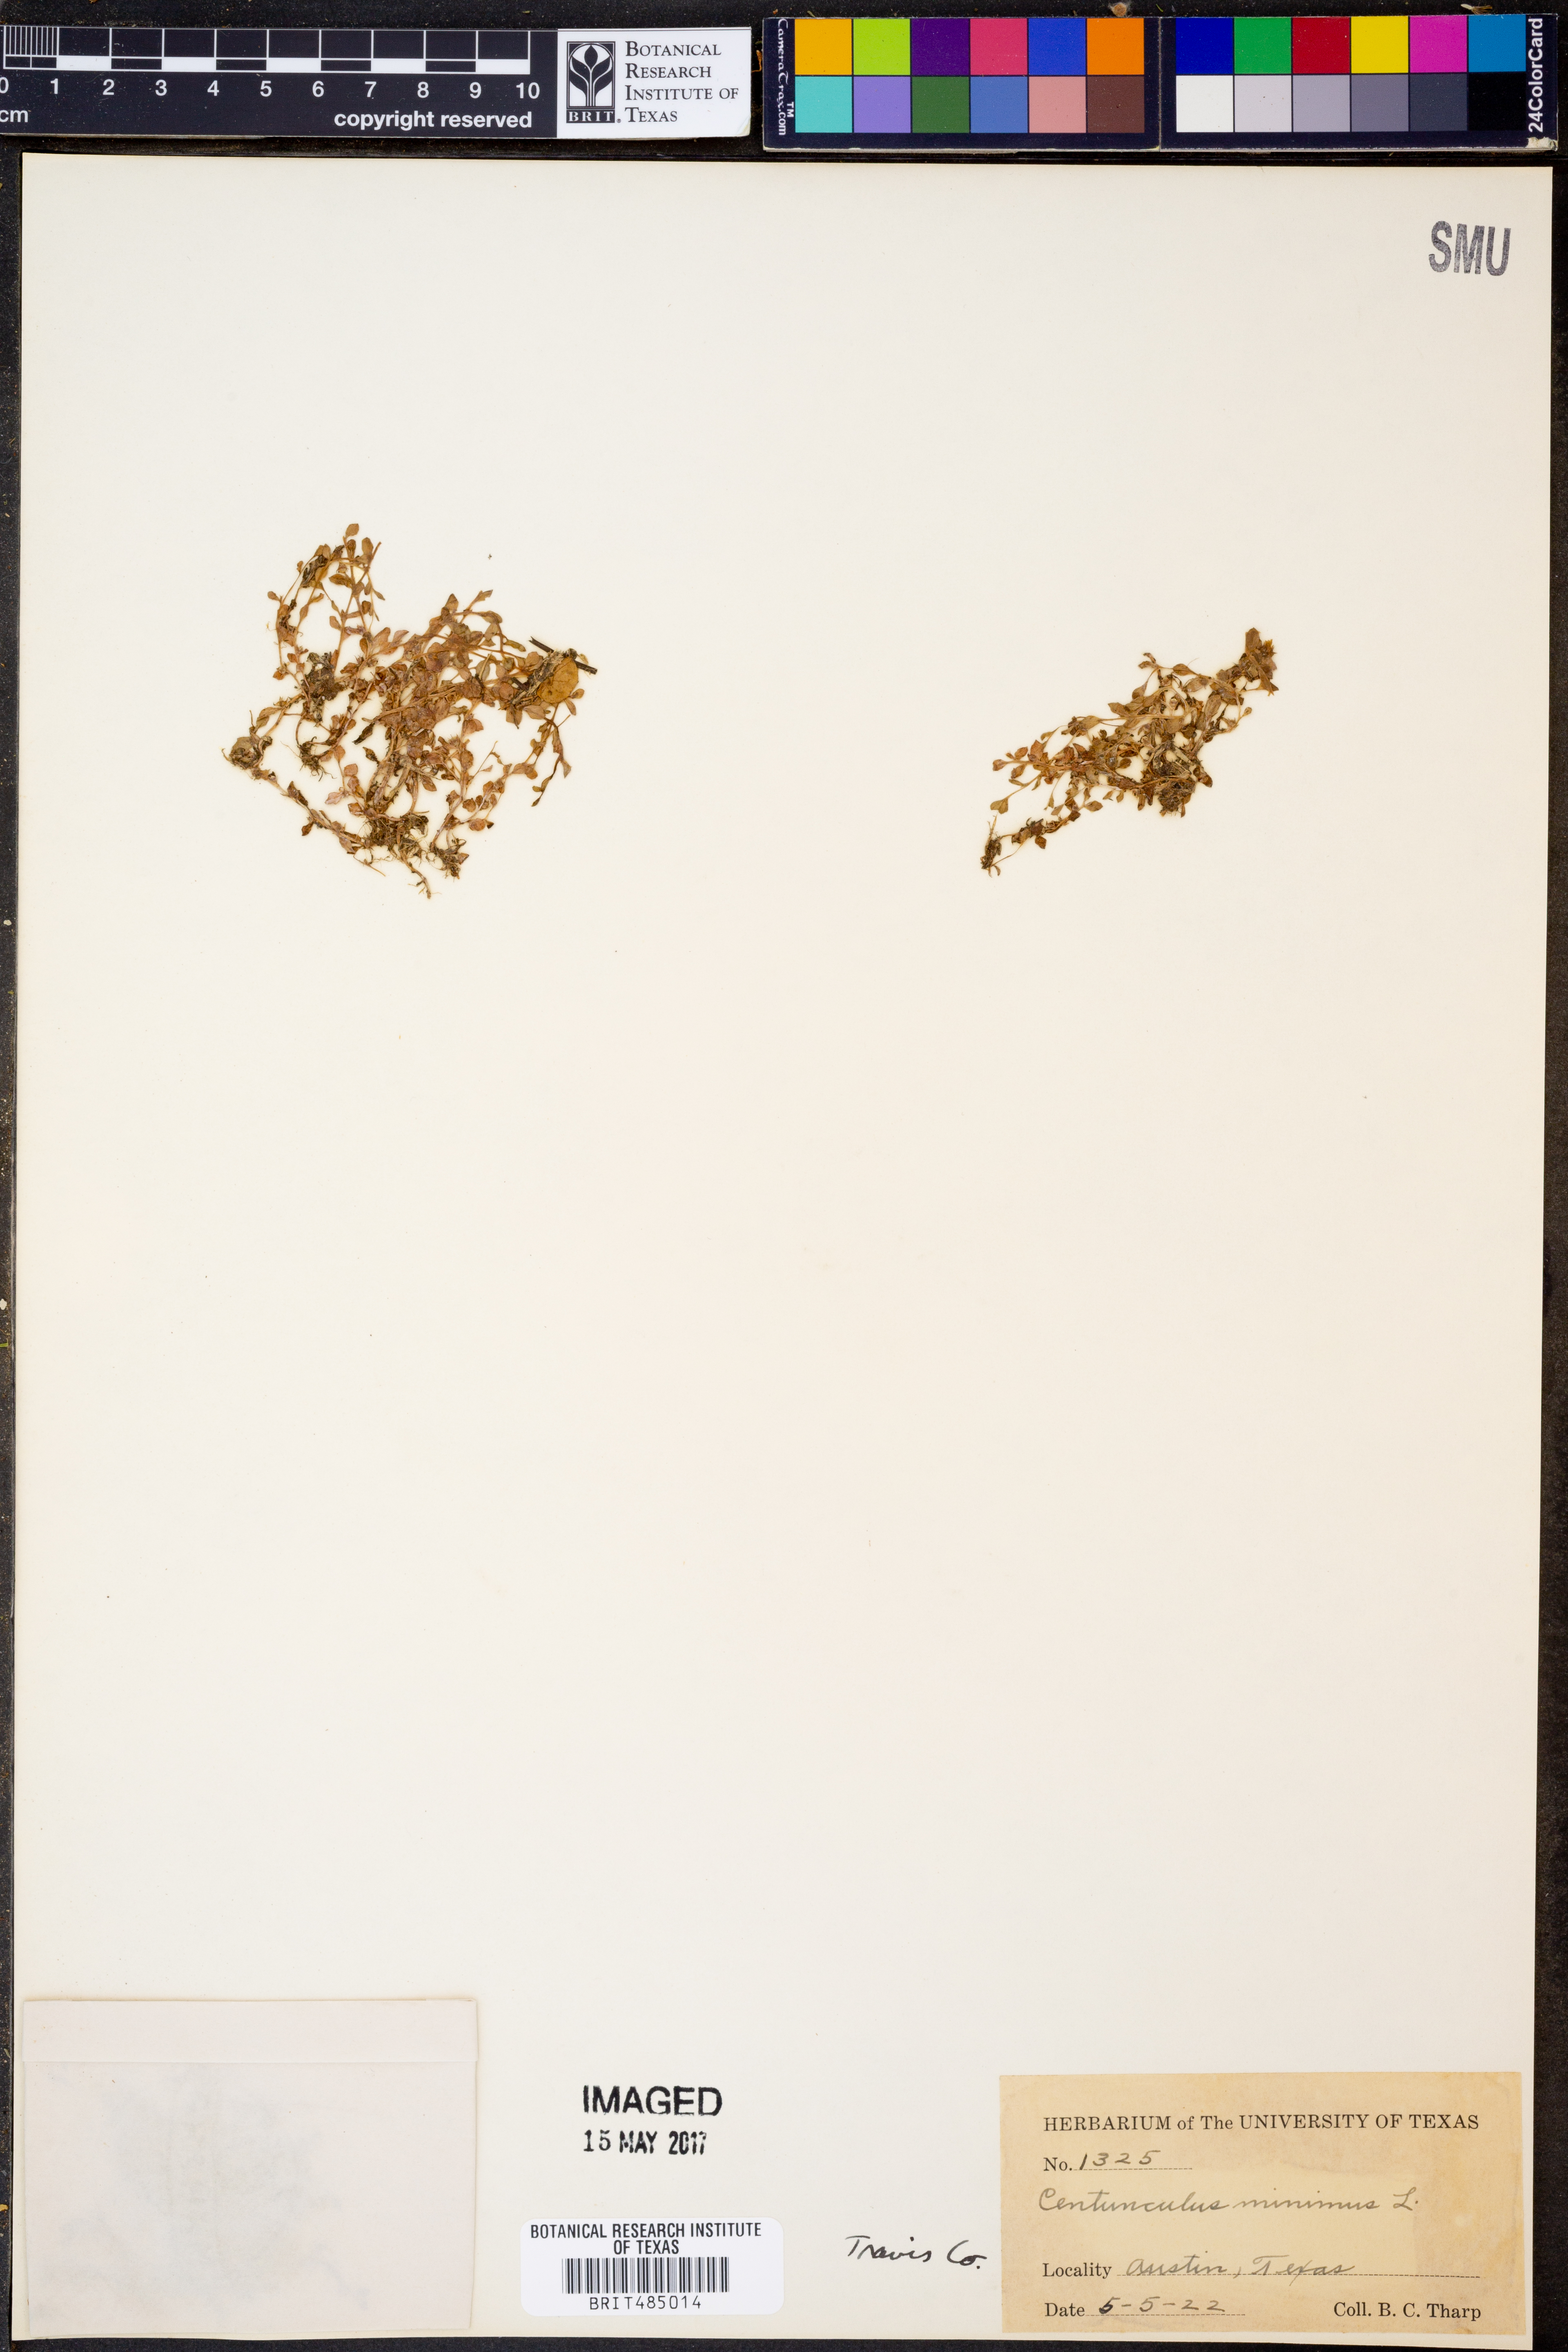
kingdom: Plantae
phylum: Tracheophyta
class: Magnoliopsida
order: Ericales
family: Primulaceae
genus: Lysimachia
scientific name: Lysimachia minima
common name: Chaffweed
